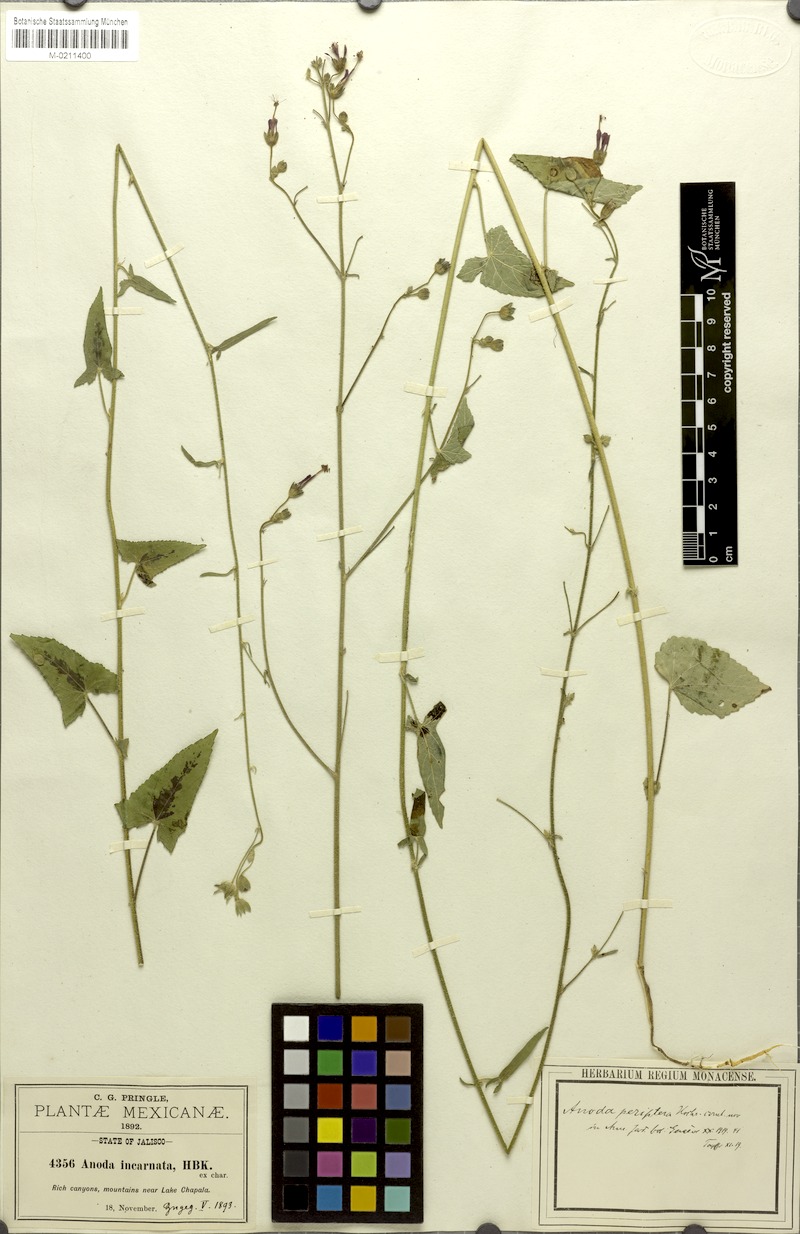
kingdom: Plantae
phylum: Tracheophyta
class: Magnoliopsida
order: Malvales
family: Malvaceae
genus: Periptera
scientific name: Periptera punicea
